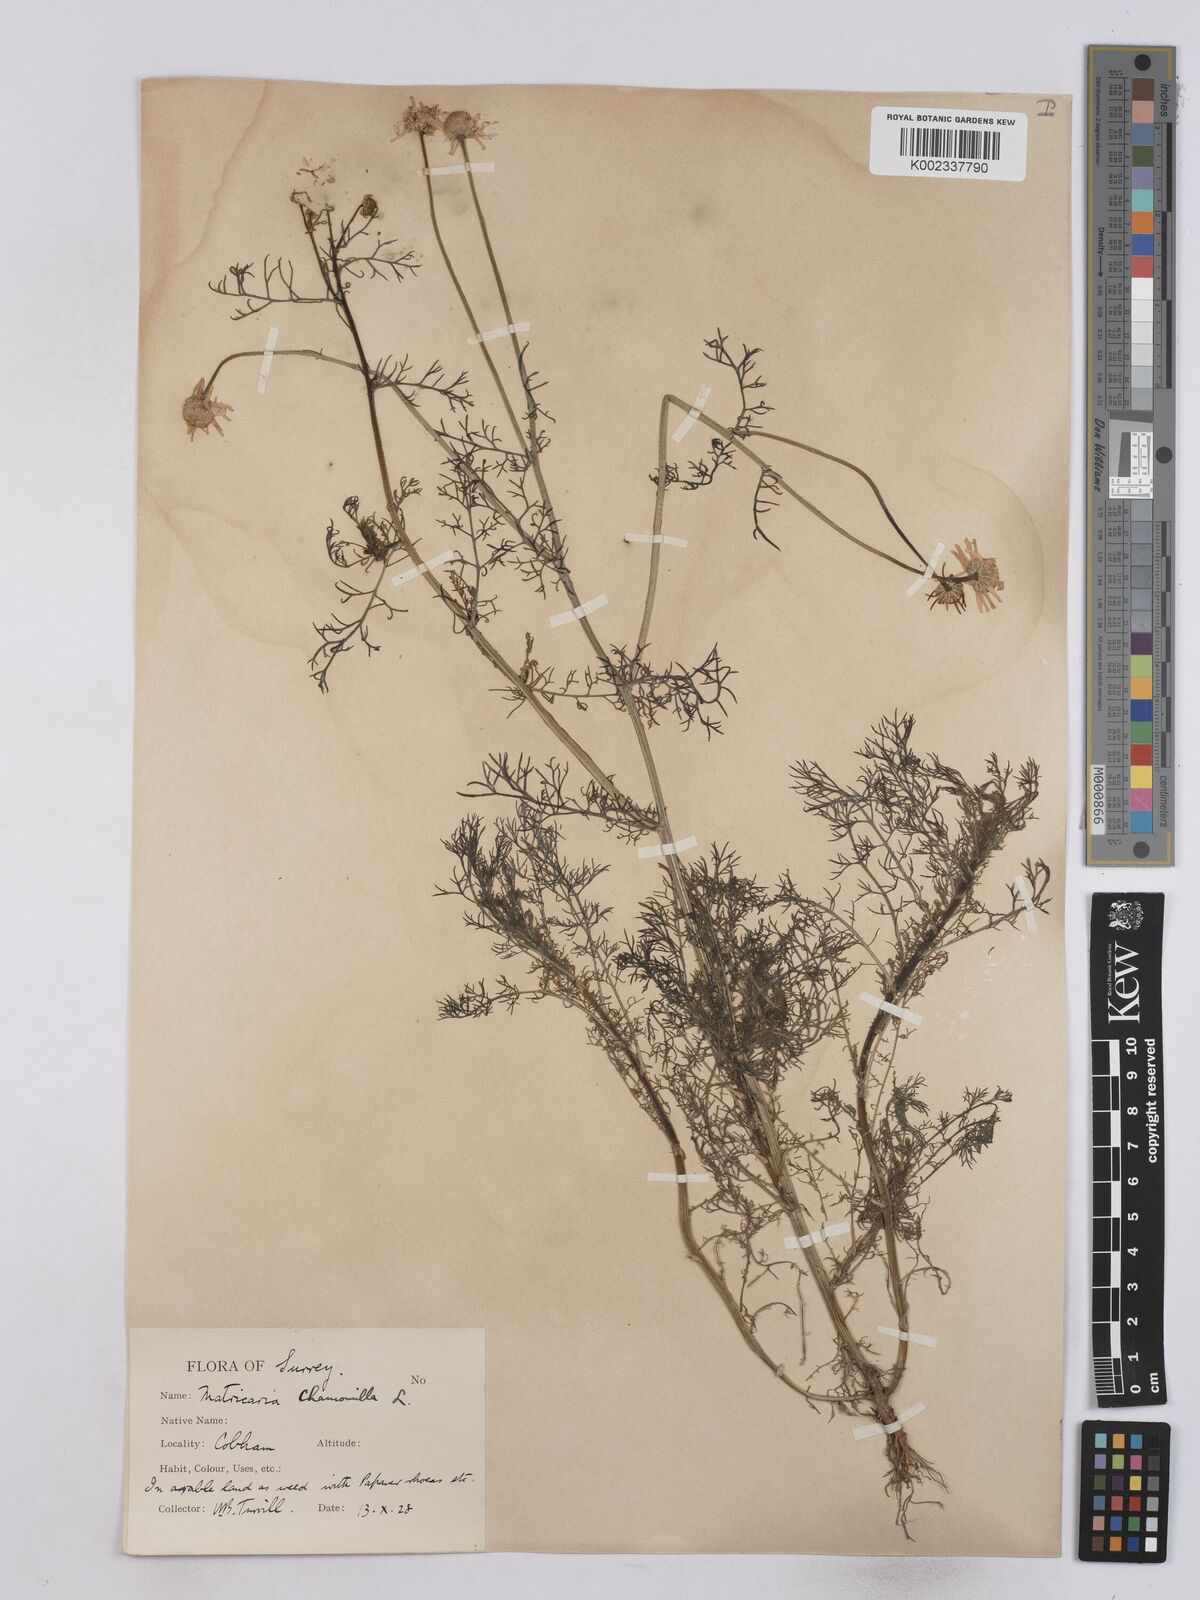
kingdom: Plantae
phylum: Tracheophyta
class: Magnoliopsida
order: Asterales
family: Asteraceae
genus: Matricaria
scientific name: Matricaria chamomilla
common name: Scented mayweed
